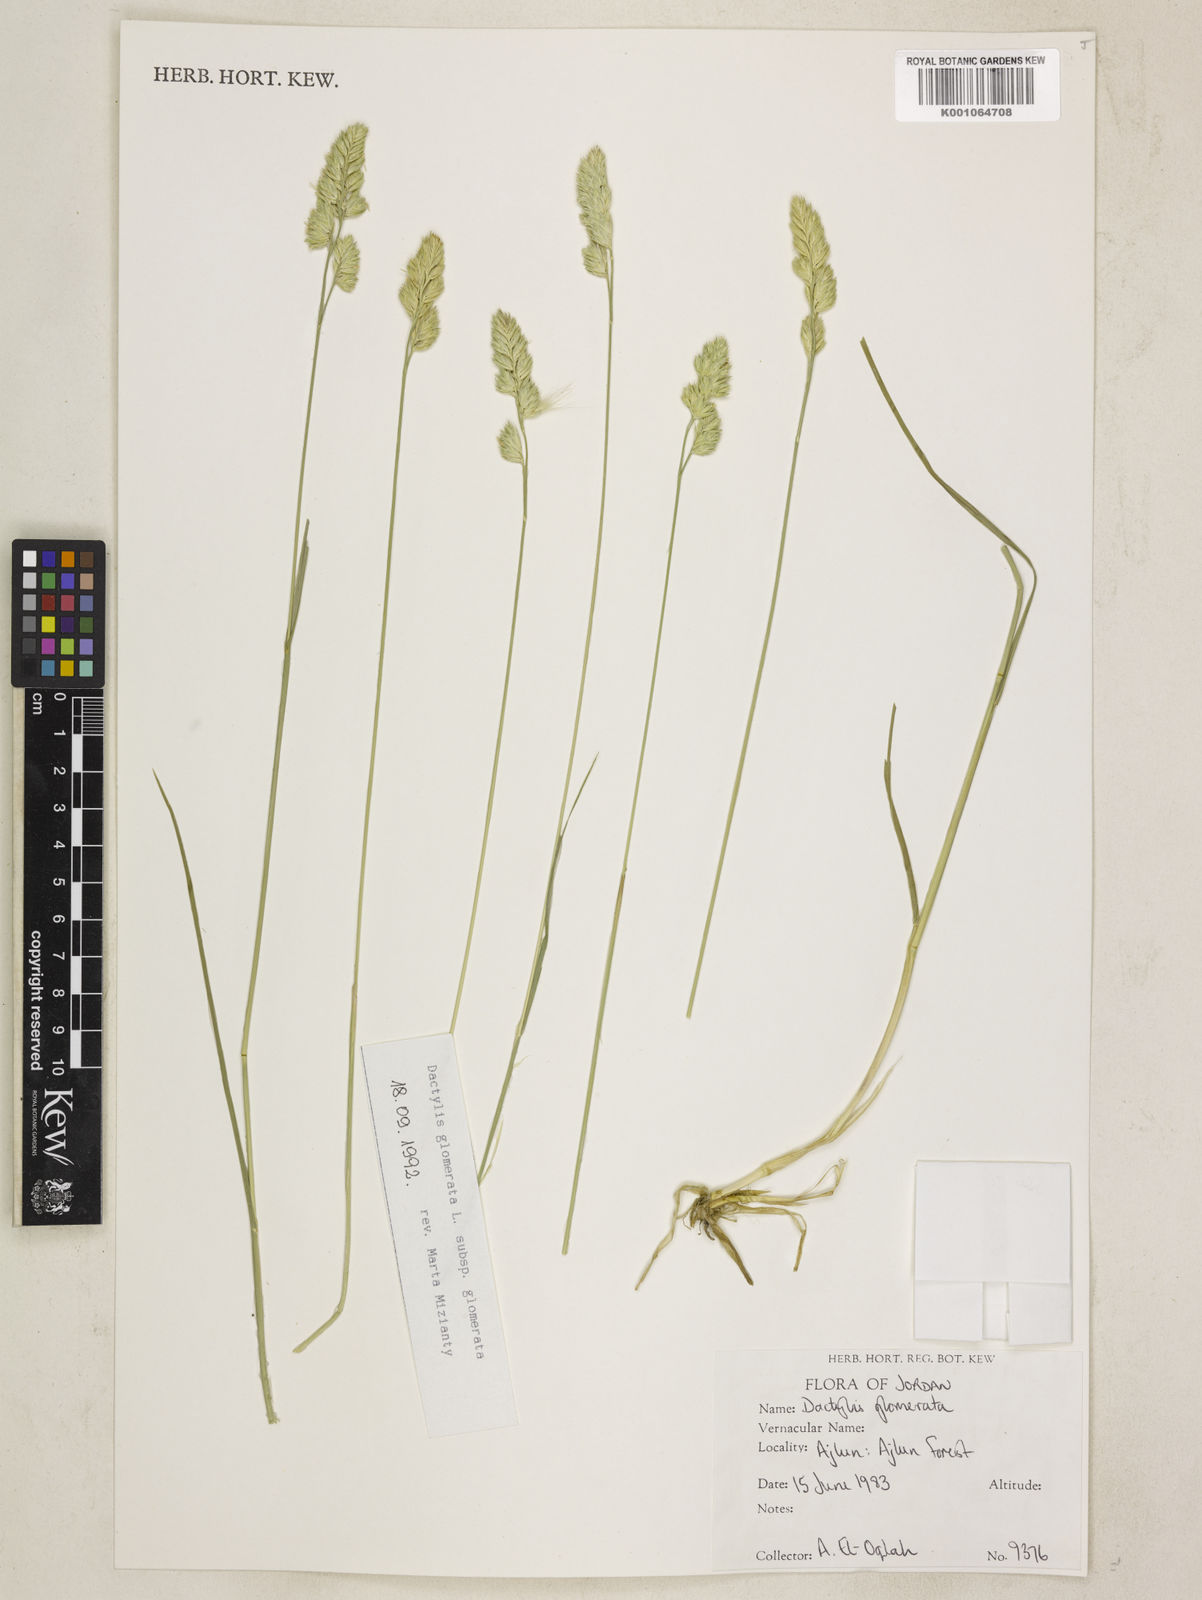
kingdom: Plantae
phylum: Tracheophyta
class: Liliopsida
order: Poales
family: Poaceae
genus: Dactylis
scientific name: Dactylis glomerata
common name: Orchardgrass
